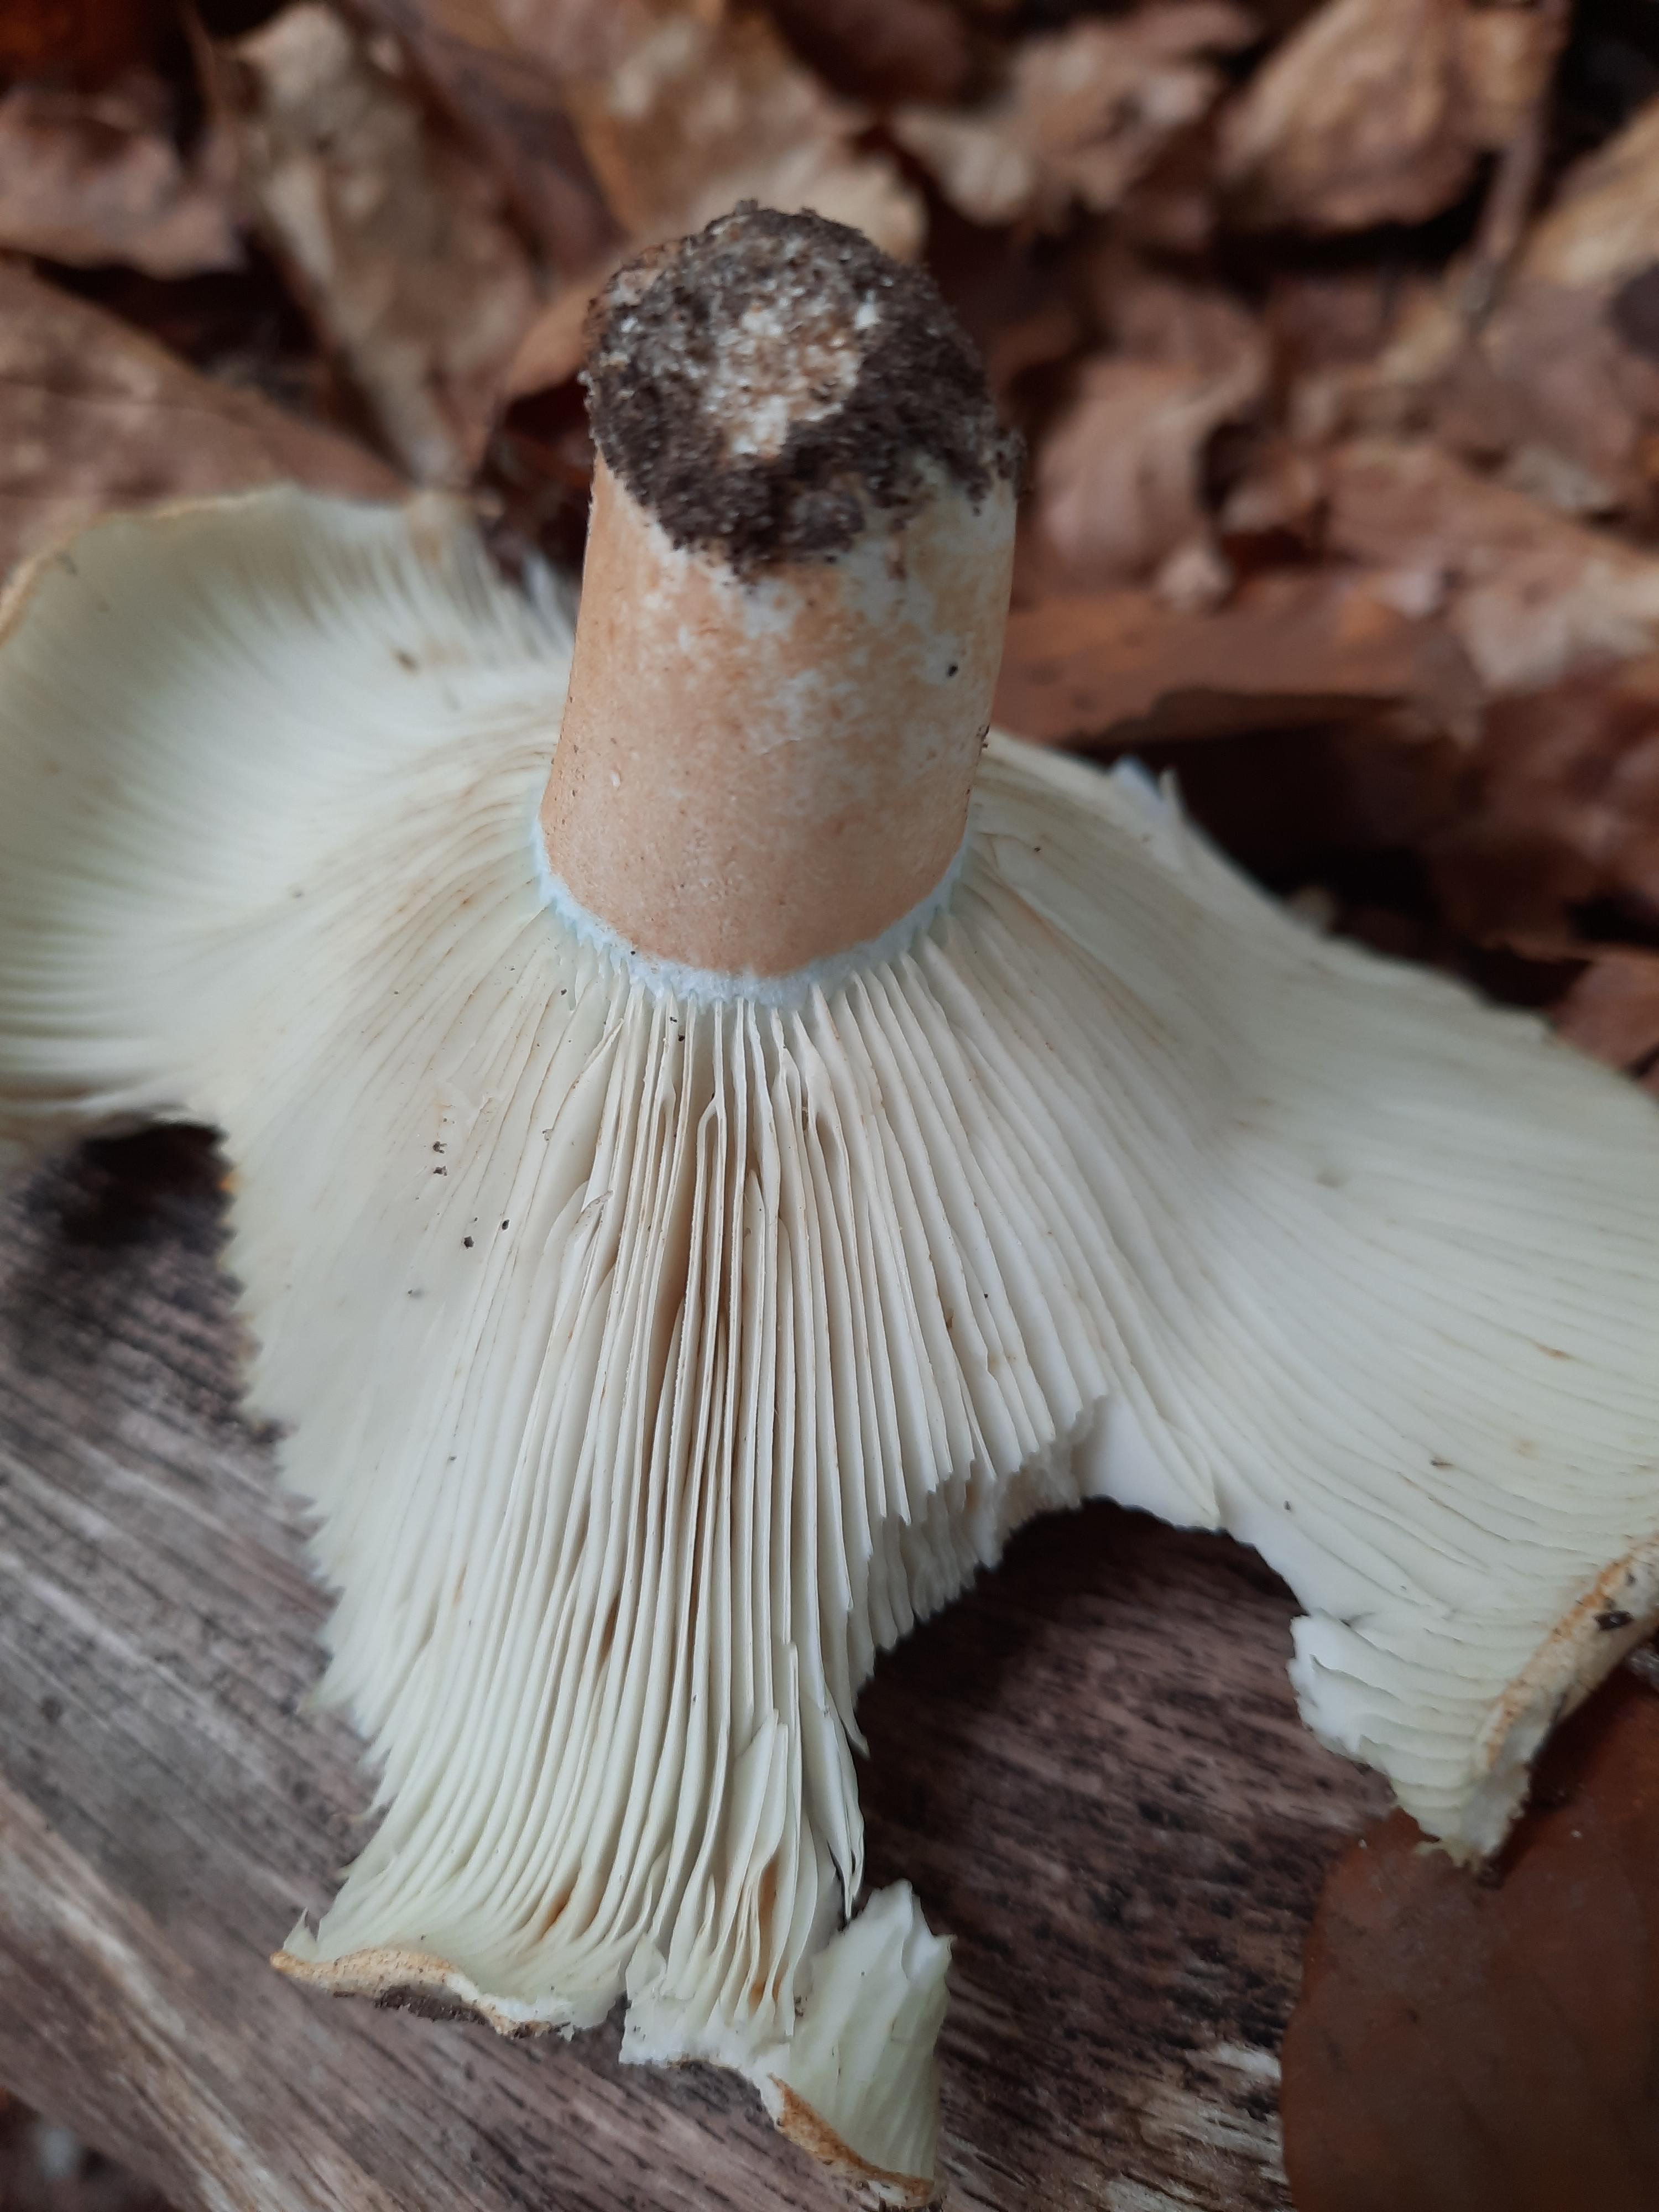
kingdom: Fungi
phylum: Basidiomycota
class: Agaricomycetes
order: Russulales
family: Russulaceae
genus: Russula
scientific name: Russula chloroides
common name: grønhalset tragt-skørhat
